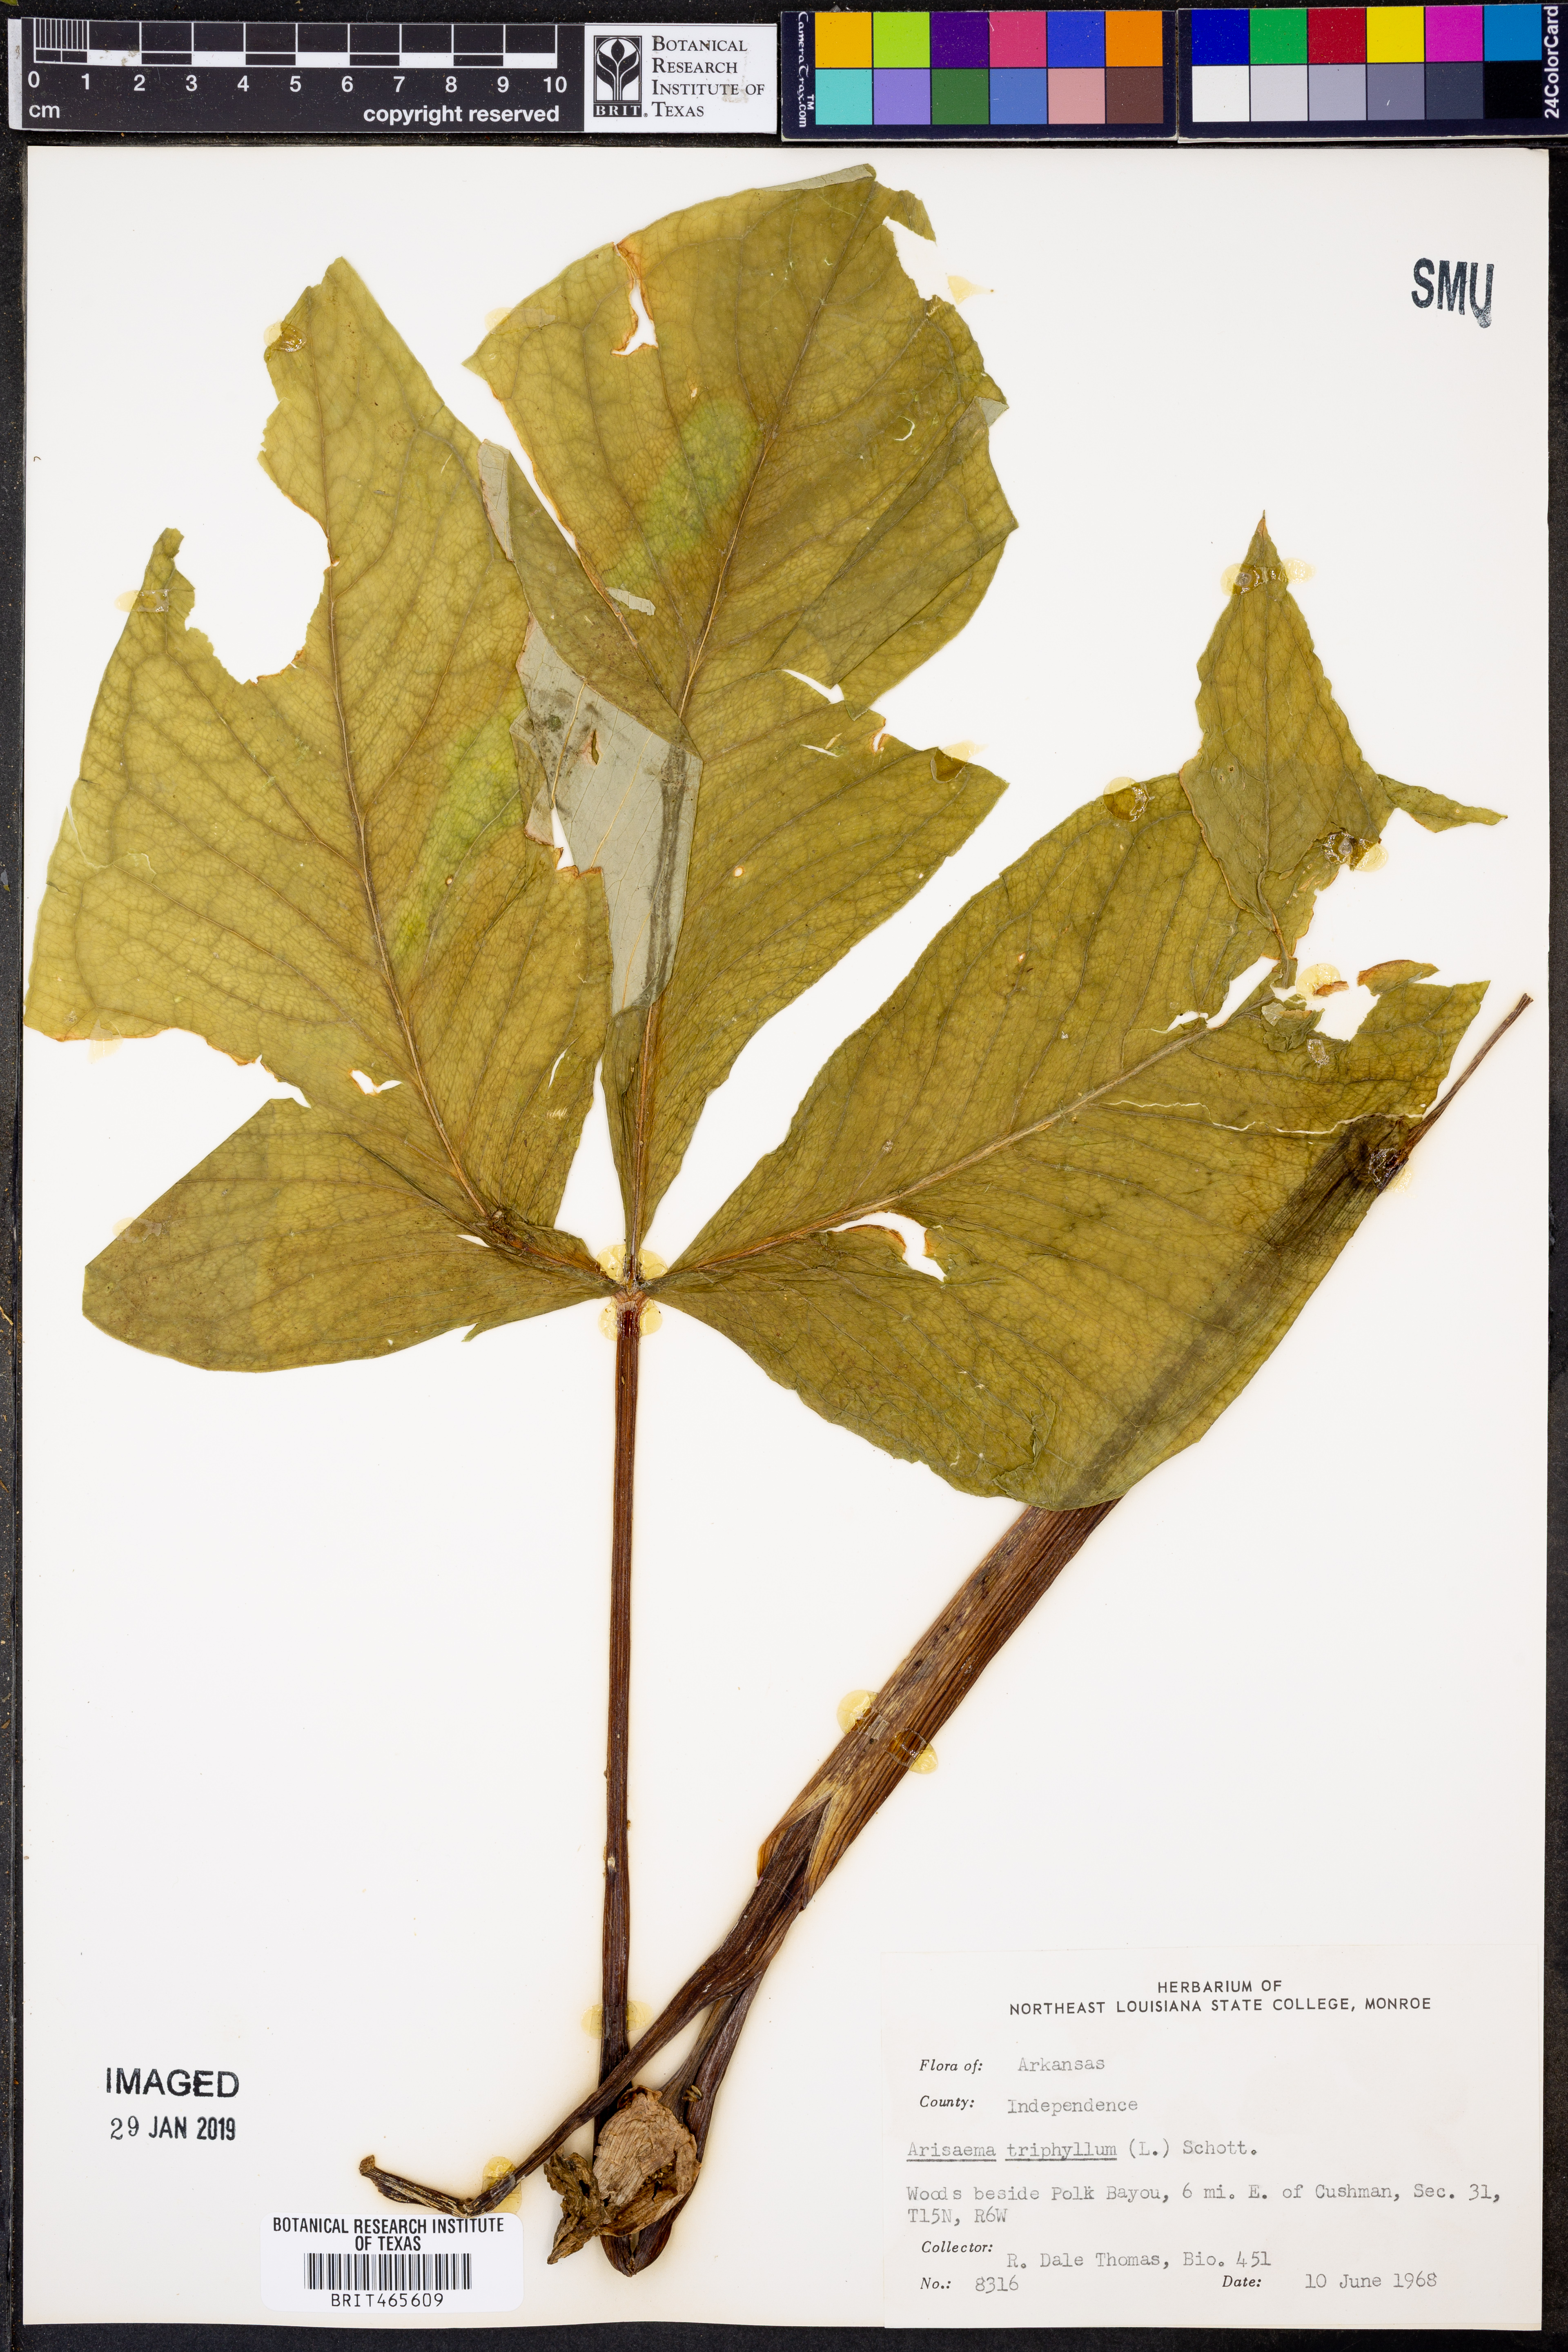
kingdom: Plantae
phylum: Tracheophyta
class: Liliopsida
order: Alismatales
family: Araceae
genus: Arisaema
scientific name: Arisaema triphyllum
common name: Jack-in-the-pulpit
